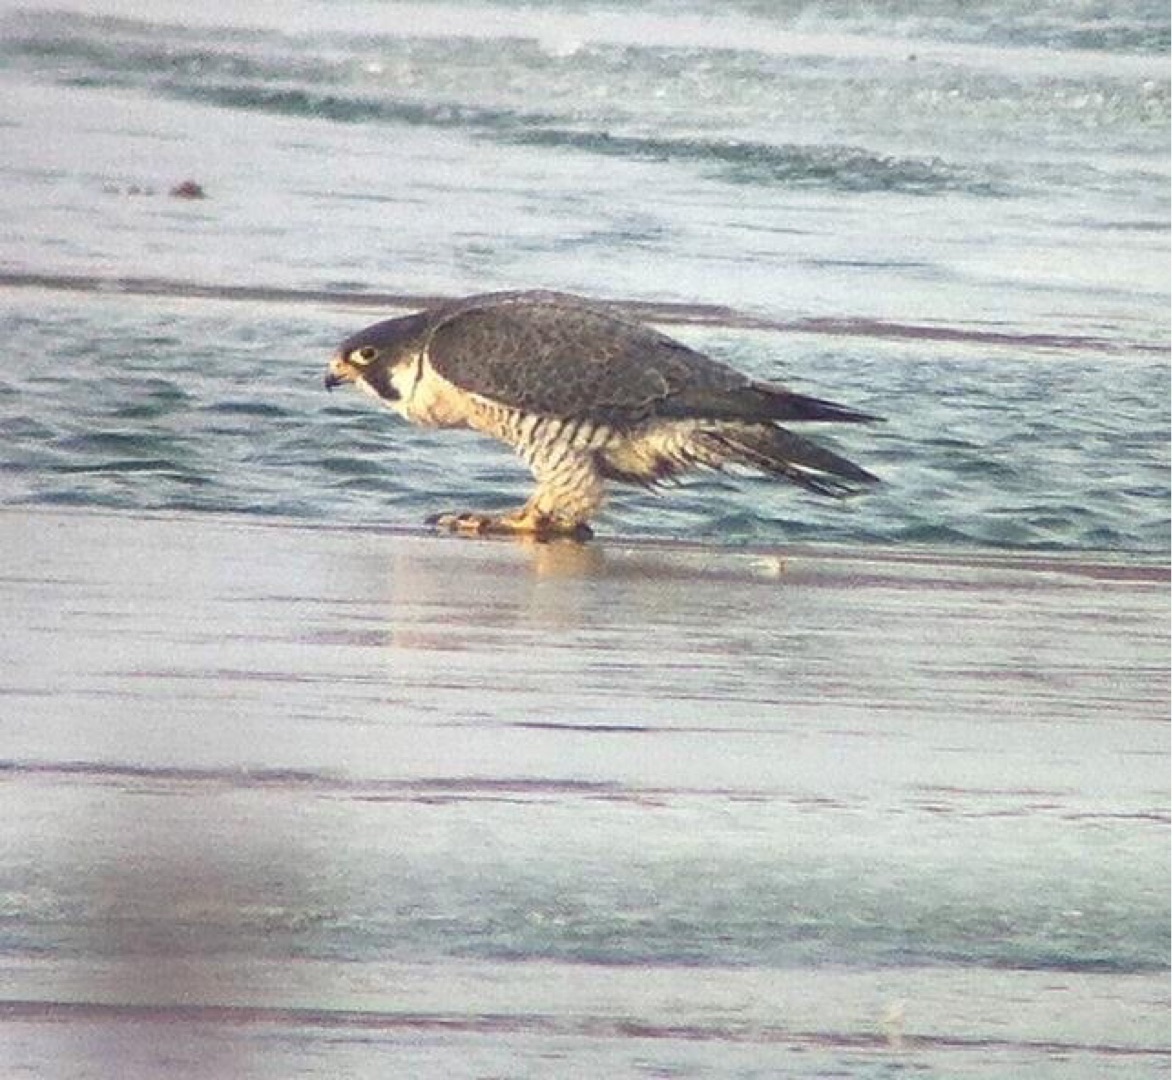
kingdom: Animalia
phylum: Chordata
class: Aves
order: Falconiformes
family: Falconidae
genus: Falco
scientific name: Falco peregrinus
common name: Vandrefalk
